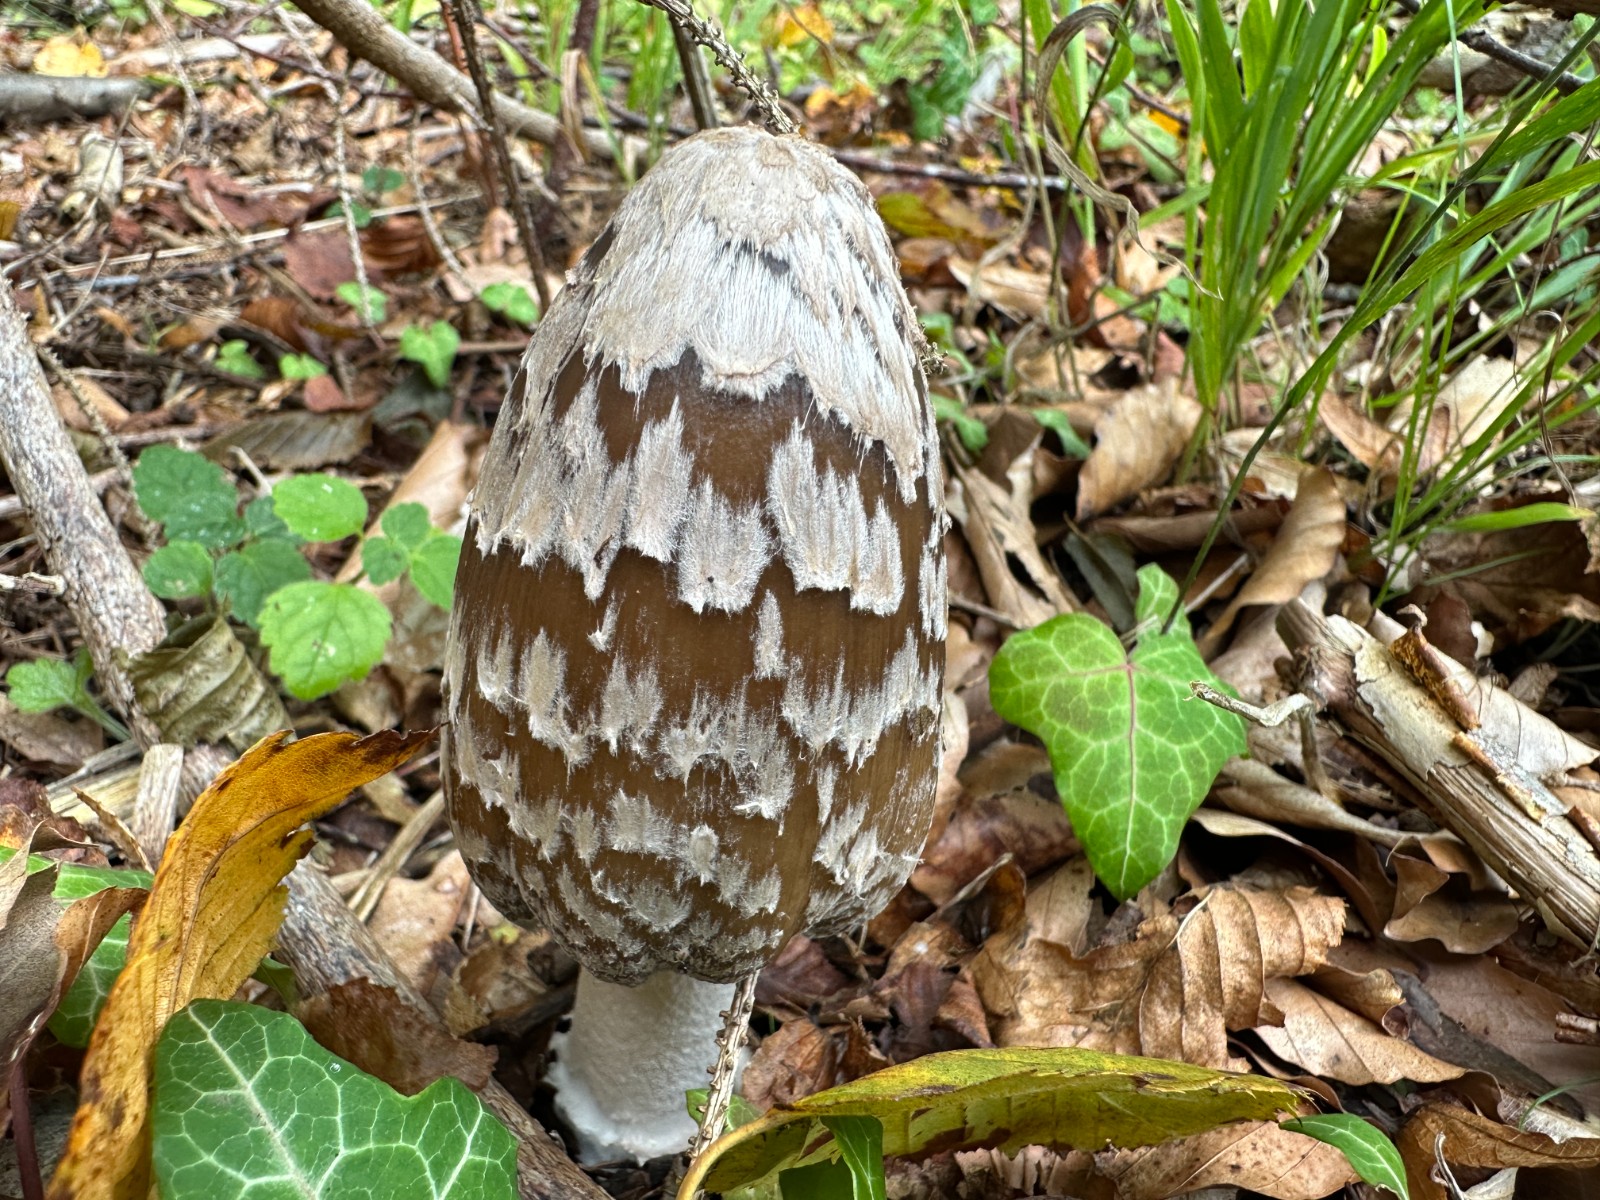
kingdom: Fungi
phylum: Basidiomycota
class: Agaricomycetes
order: Agaricales
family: Psathyrellaceae
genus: Coprinopsis
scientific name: Coprinopsis picacea
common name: skade-blækhat
